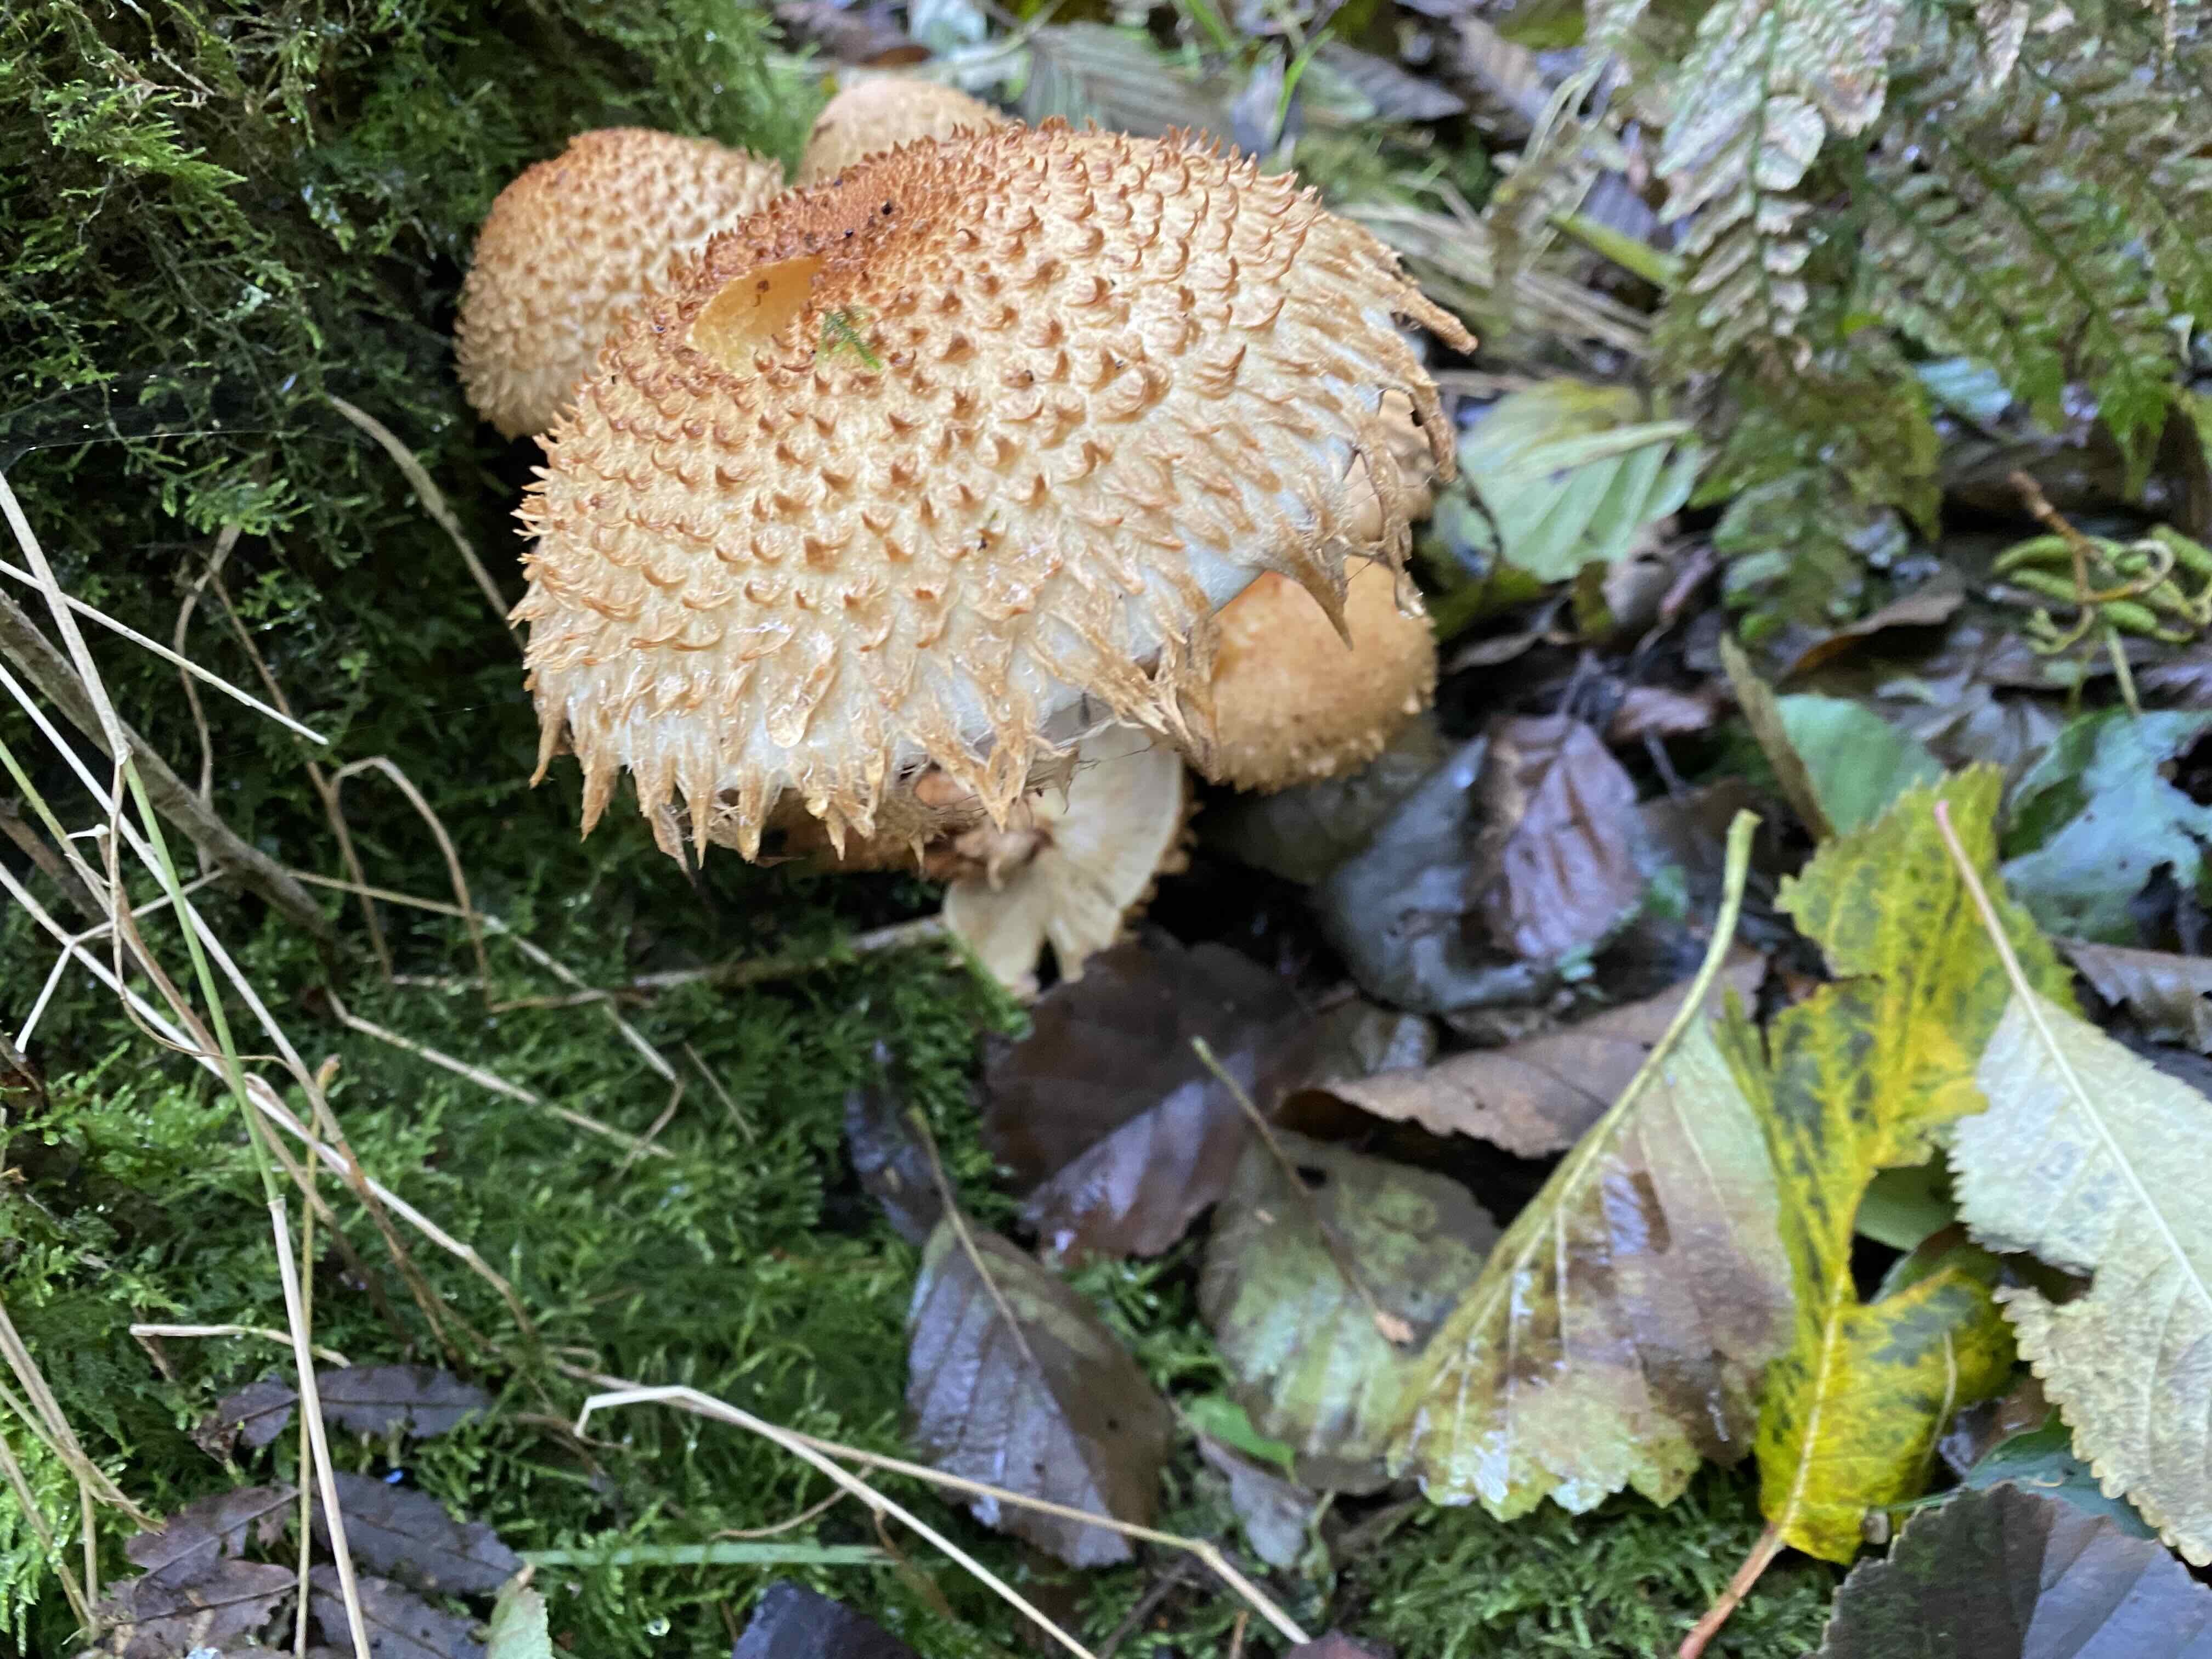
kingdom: Fungi
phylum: Basidiomycota
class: Agaricomycetes
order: Agaricales
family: Strophariaceae
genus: Pholiota
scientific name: Pholiota squarrosa
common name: krumskællet skælhat
